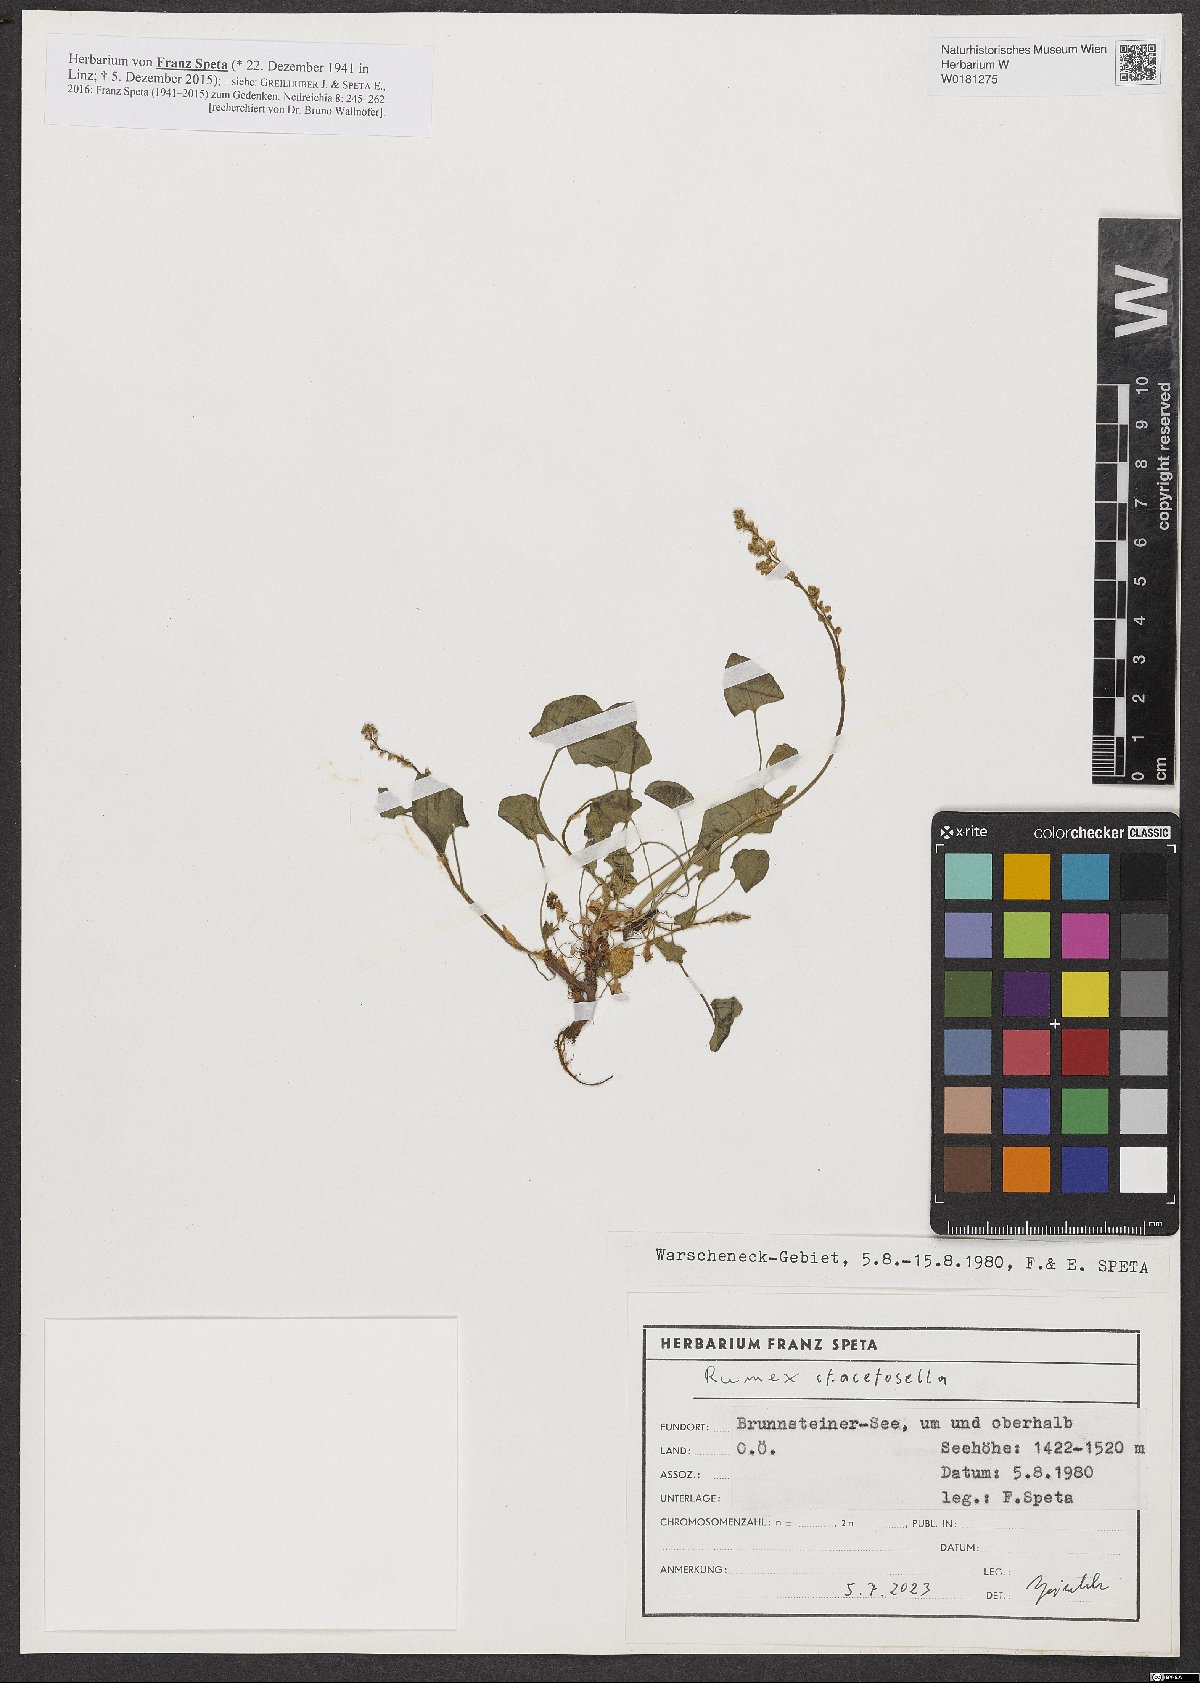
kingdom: Plantae
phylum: Tracheophyta
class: Magnoliopsida
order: Caryophyllales
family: Polygonaceae
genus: Rumex
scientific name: Rumex acetosella
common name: Common sheep sorrel
